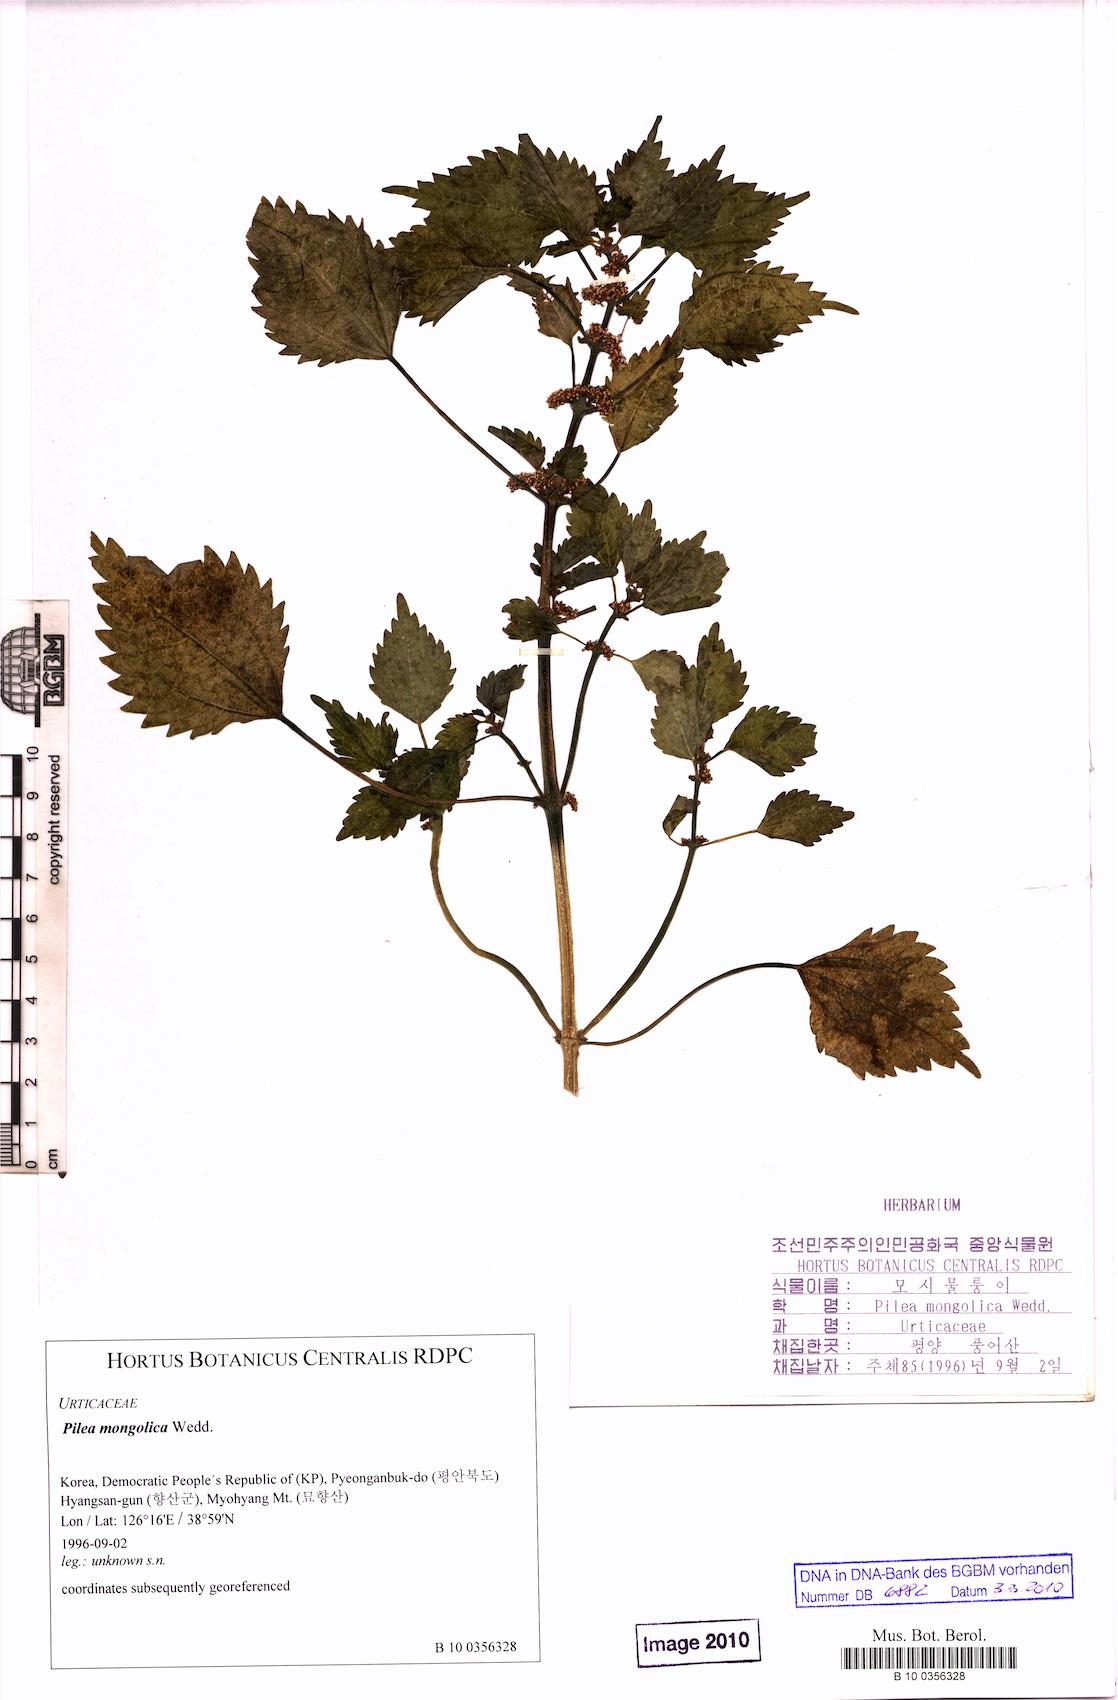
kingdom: Plantae
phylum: Tracheophyta
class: Magnoliopsida
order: Rosales
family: Urticaceae
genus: Pilea
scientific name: Pilea pumila
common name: Clearweed
